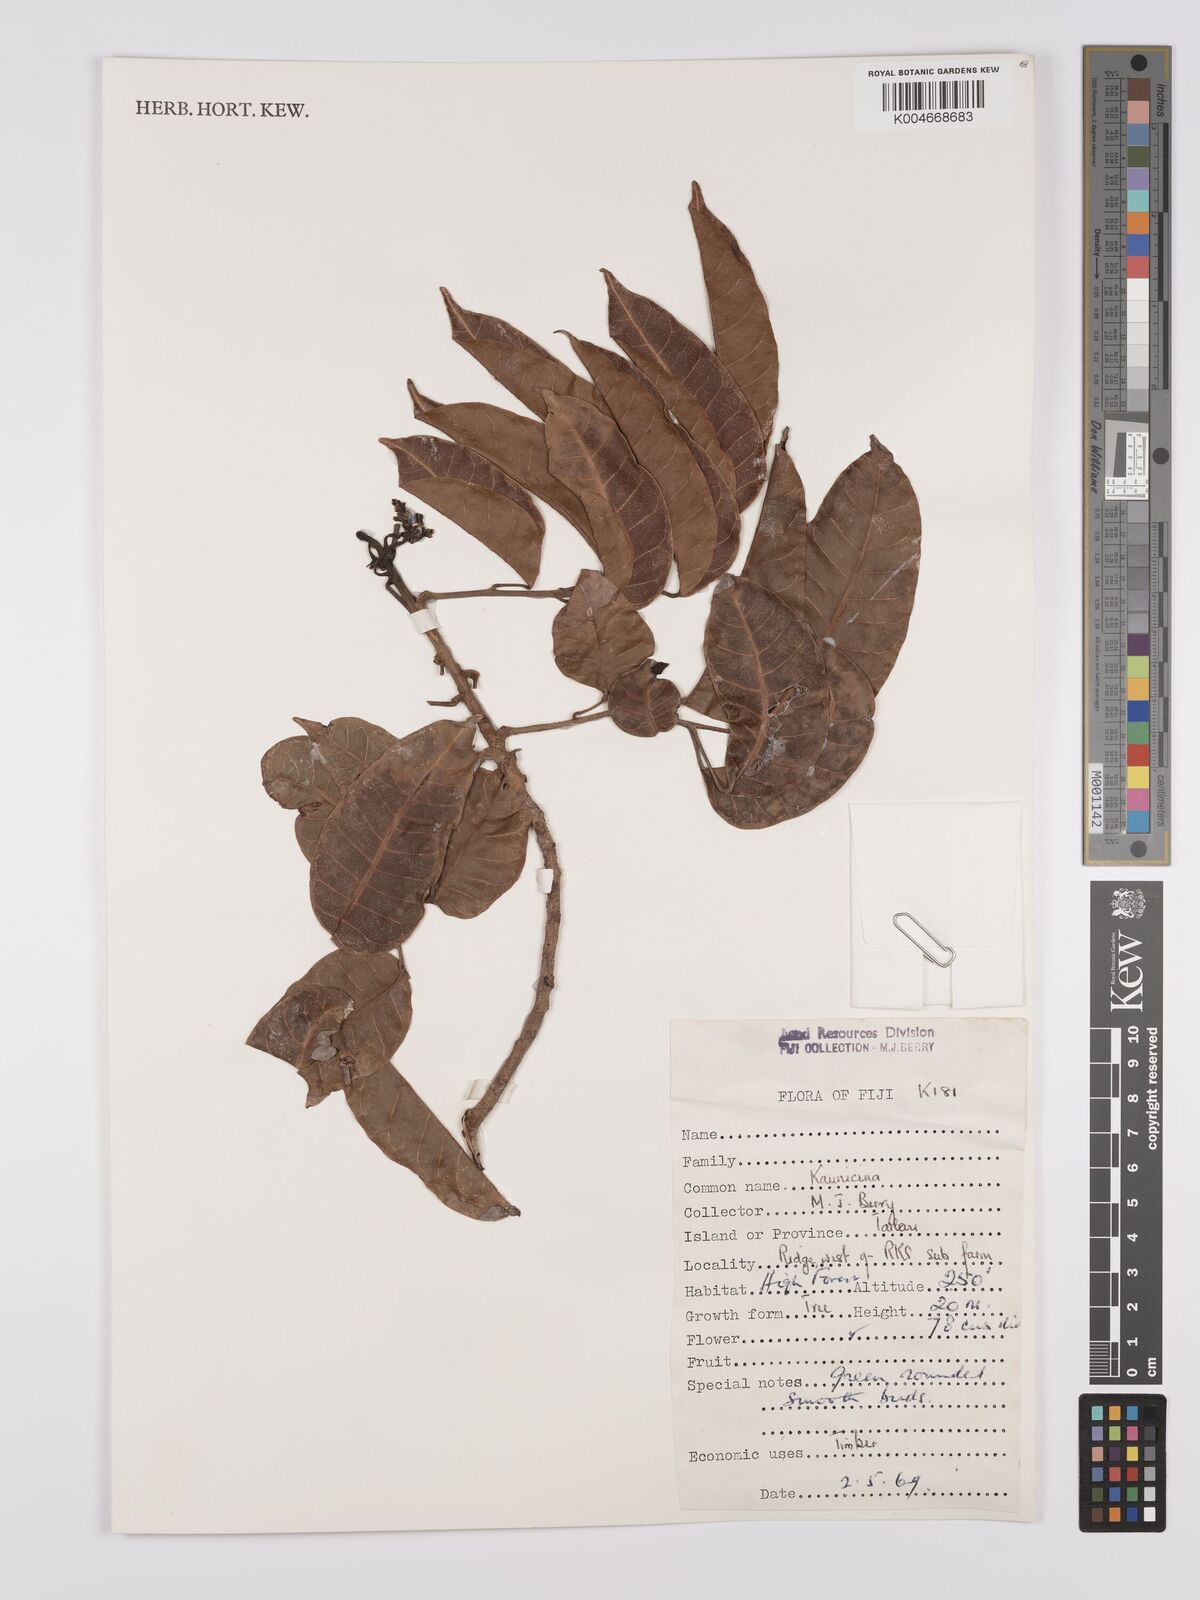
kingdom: Plantae
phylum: Tracheophyta
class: Magnoliopsida
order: Sapindales
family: Burseraceae
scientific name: Burseraceae
